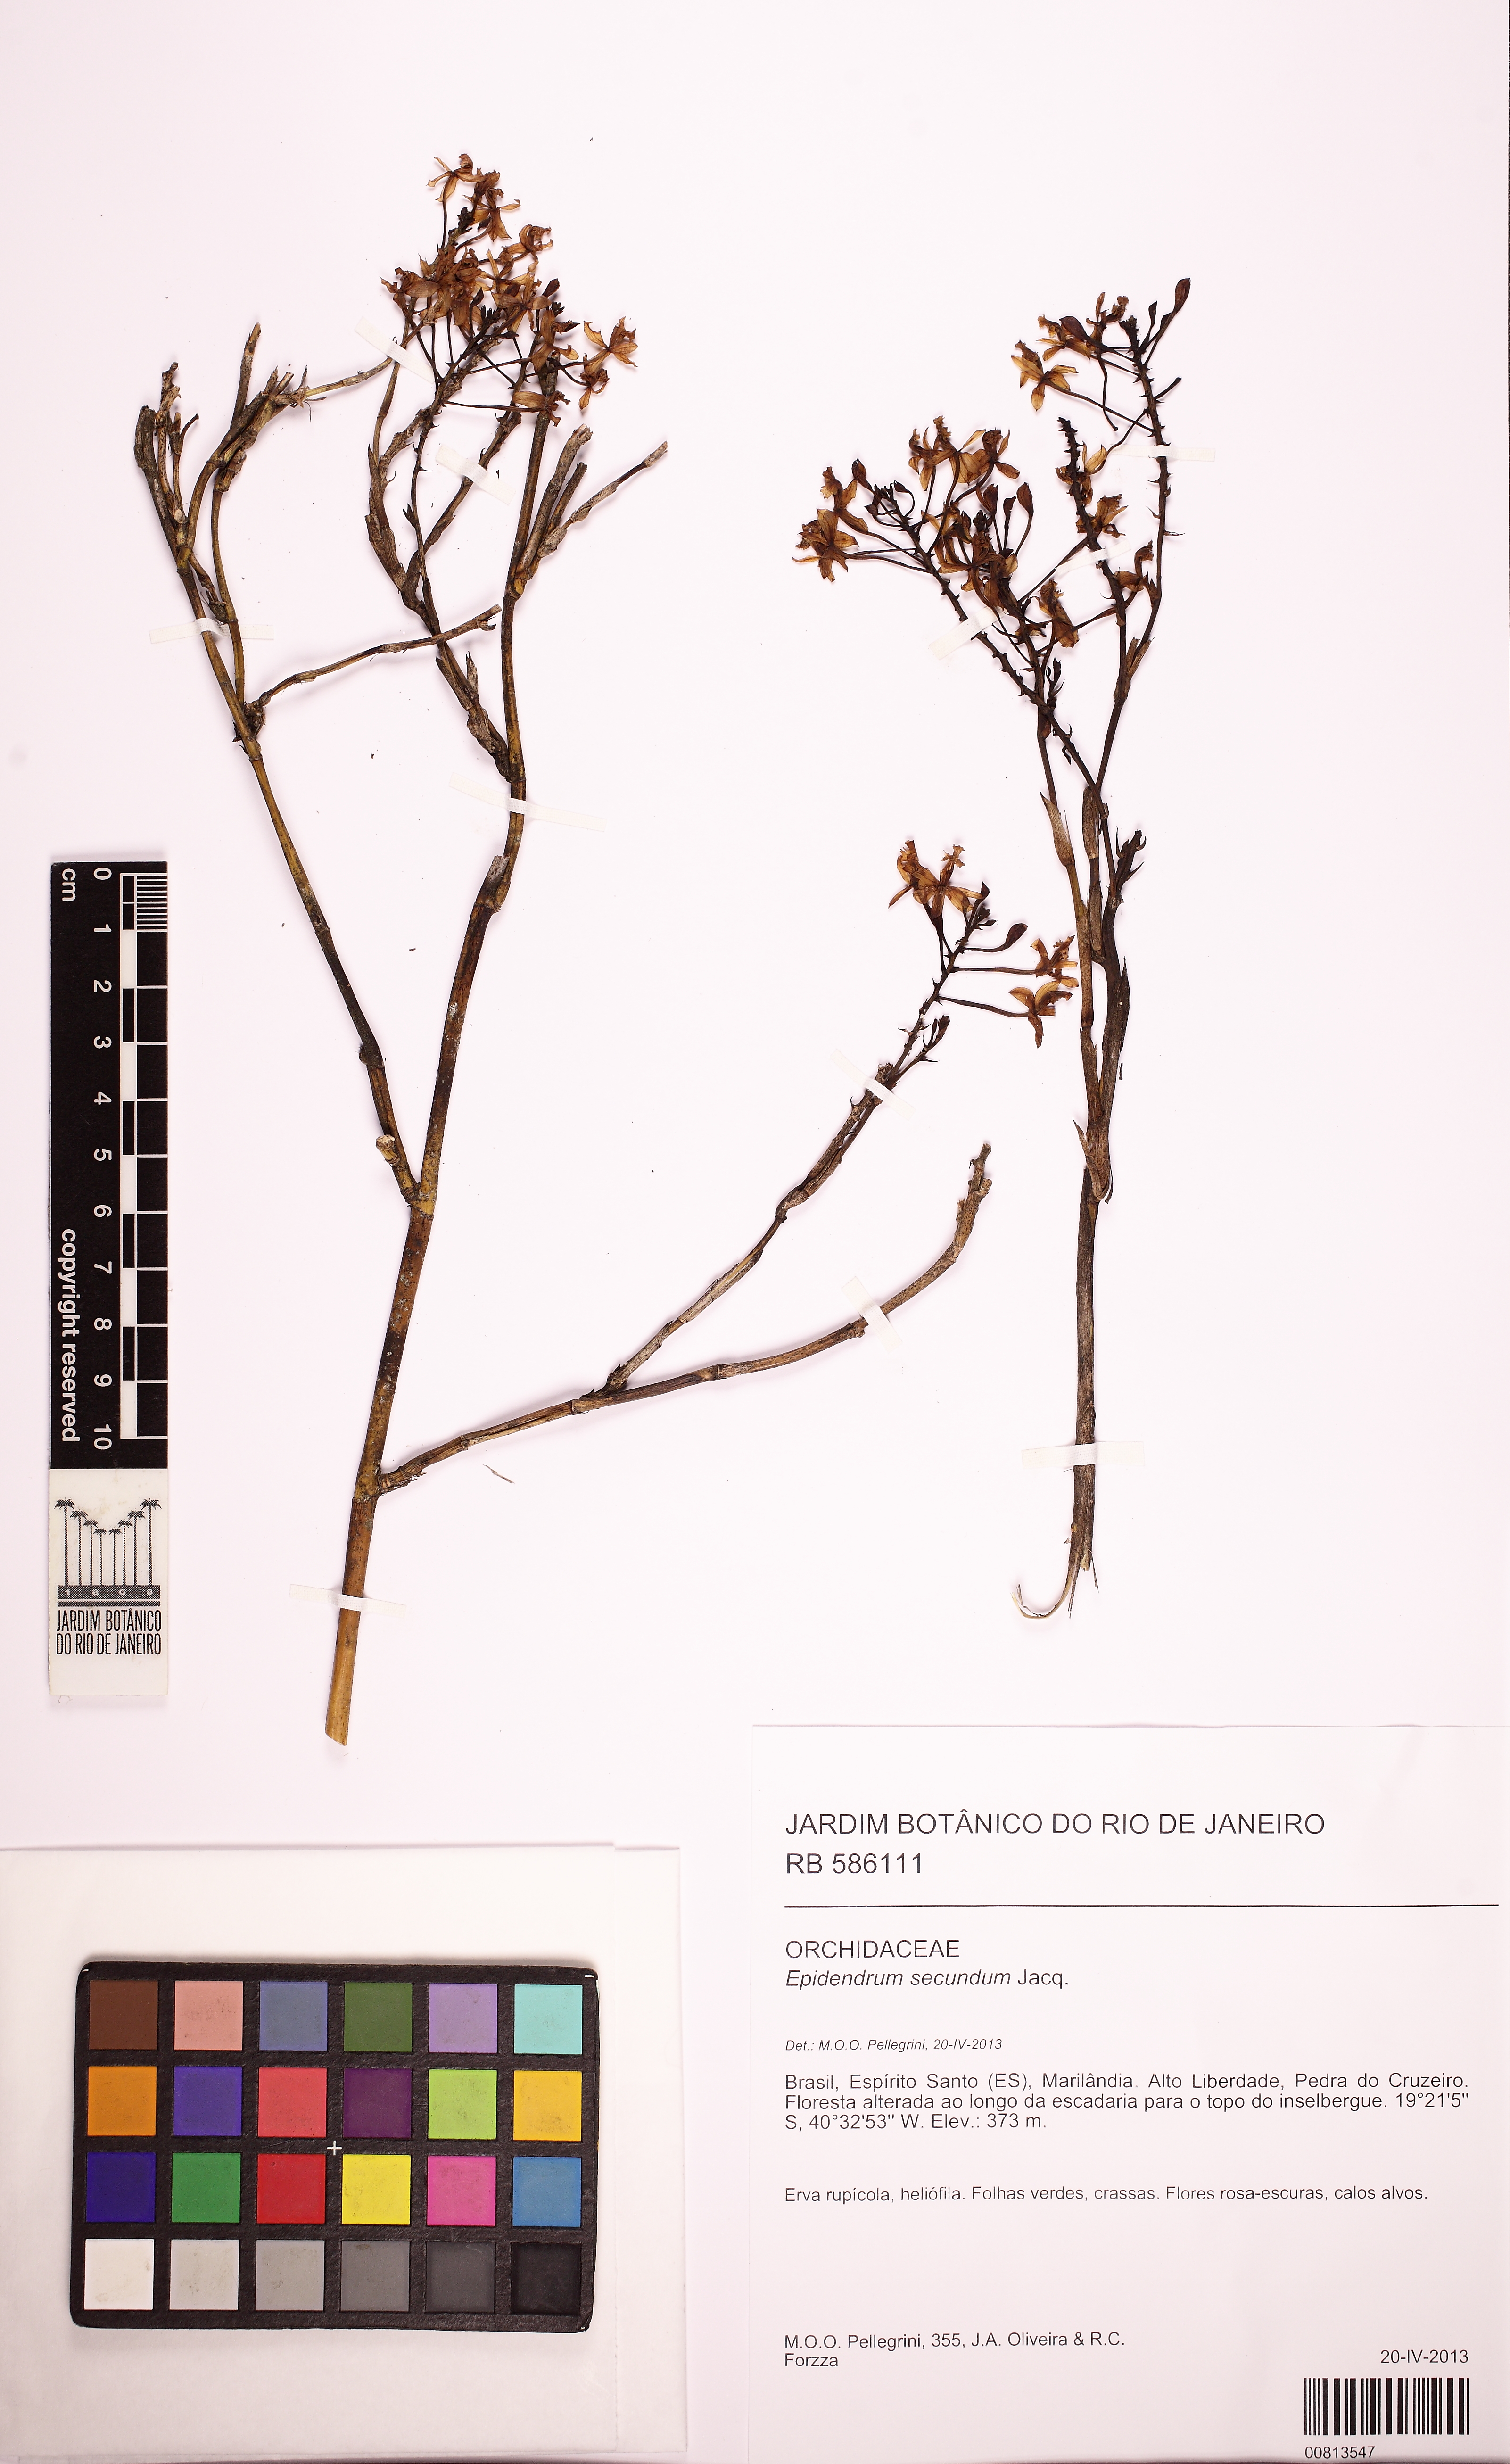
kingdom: Plantae
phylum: Tracheophyta
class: Liliopsida
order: Asparagales
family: Orchidaceae
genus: Epidendrum
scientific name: Epidendrum secundum
